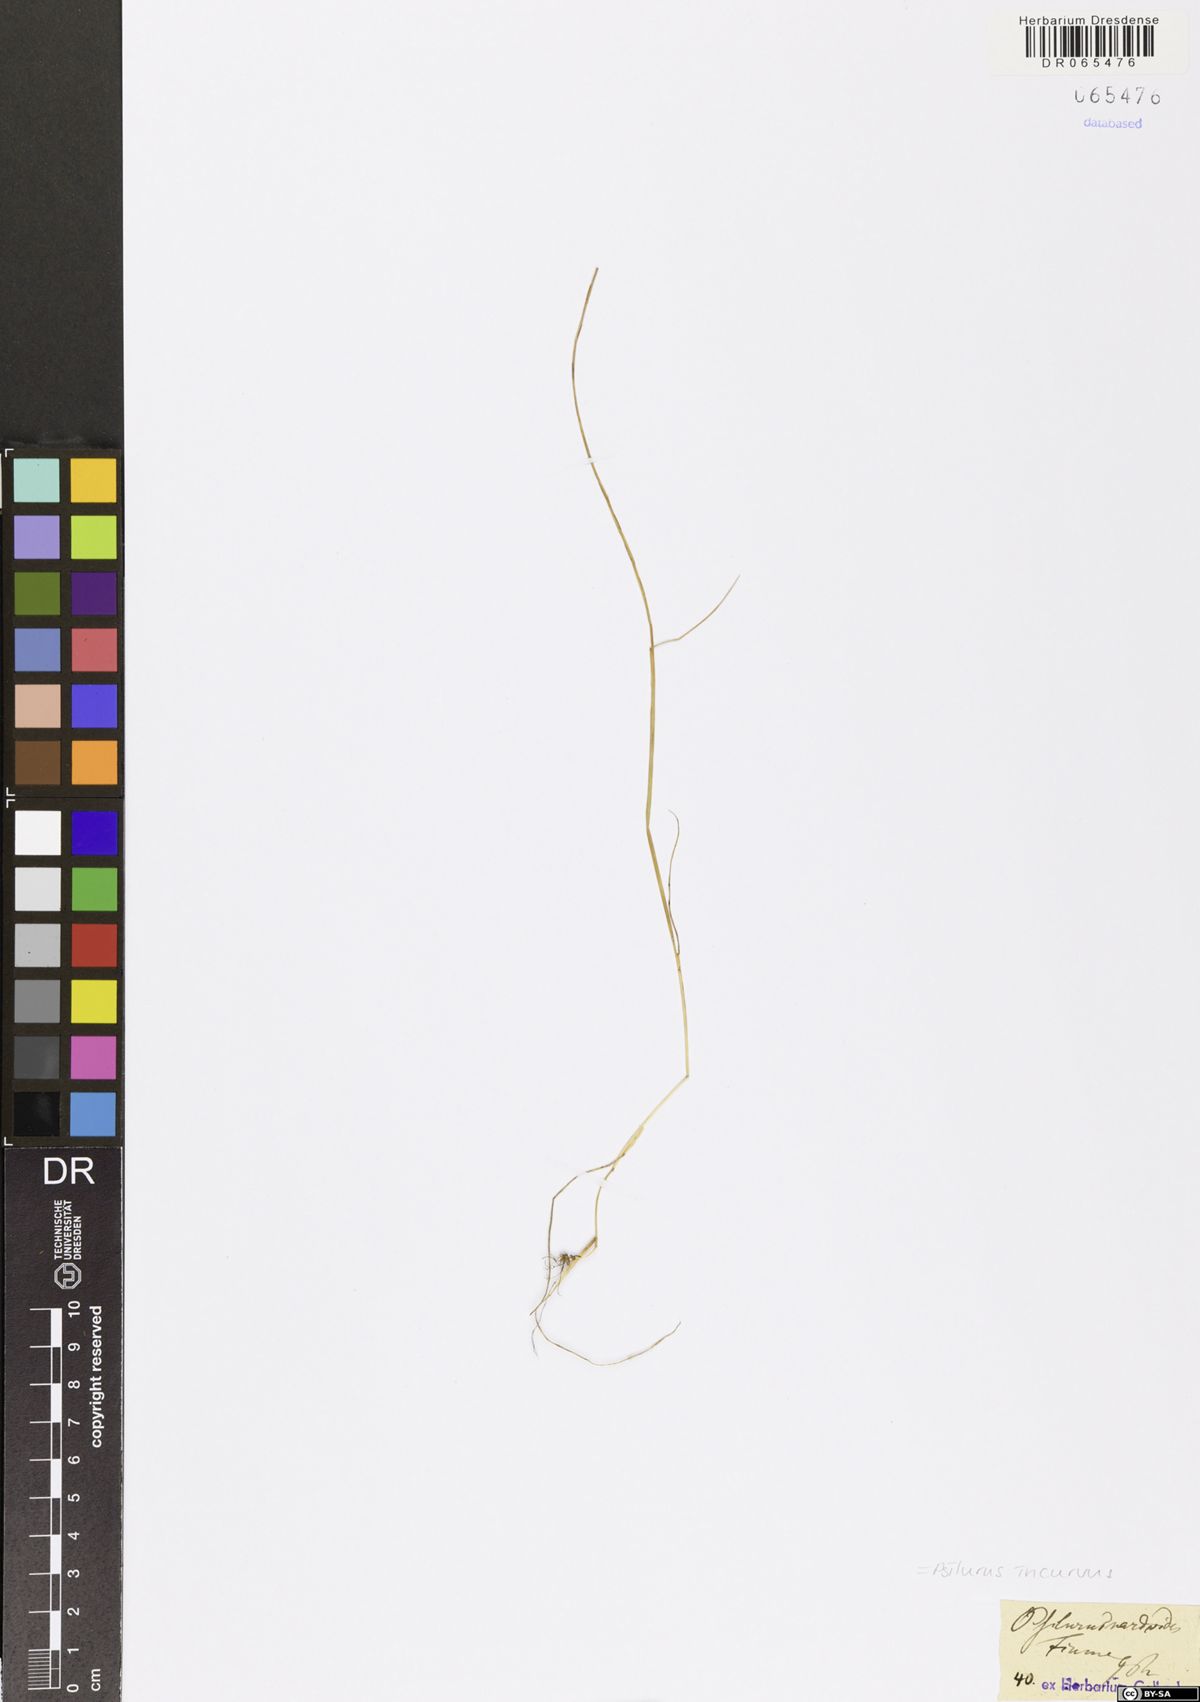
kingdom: Plantae
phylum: Tracheophyta
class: Liliopsida
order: Poales
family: Poaceae
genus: Festuca
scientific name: Festuca incurva
